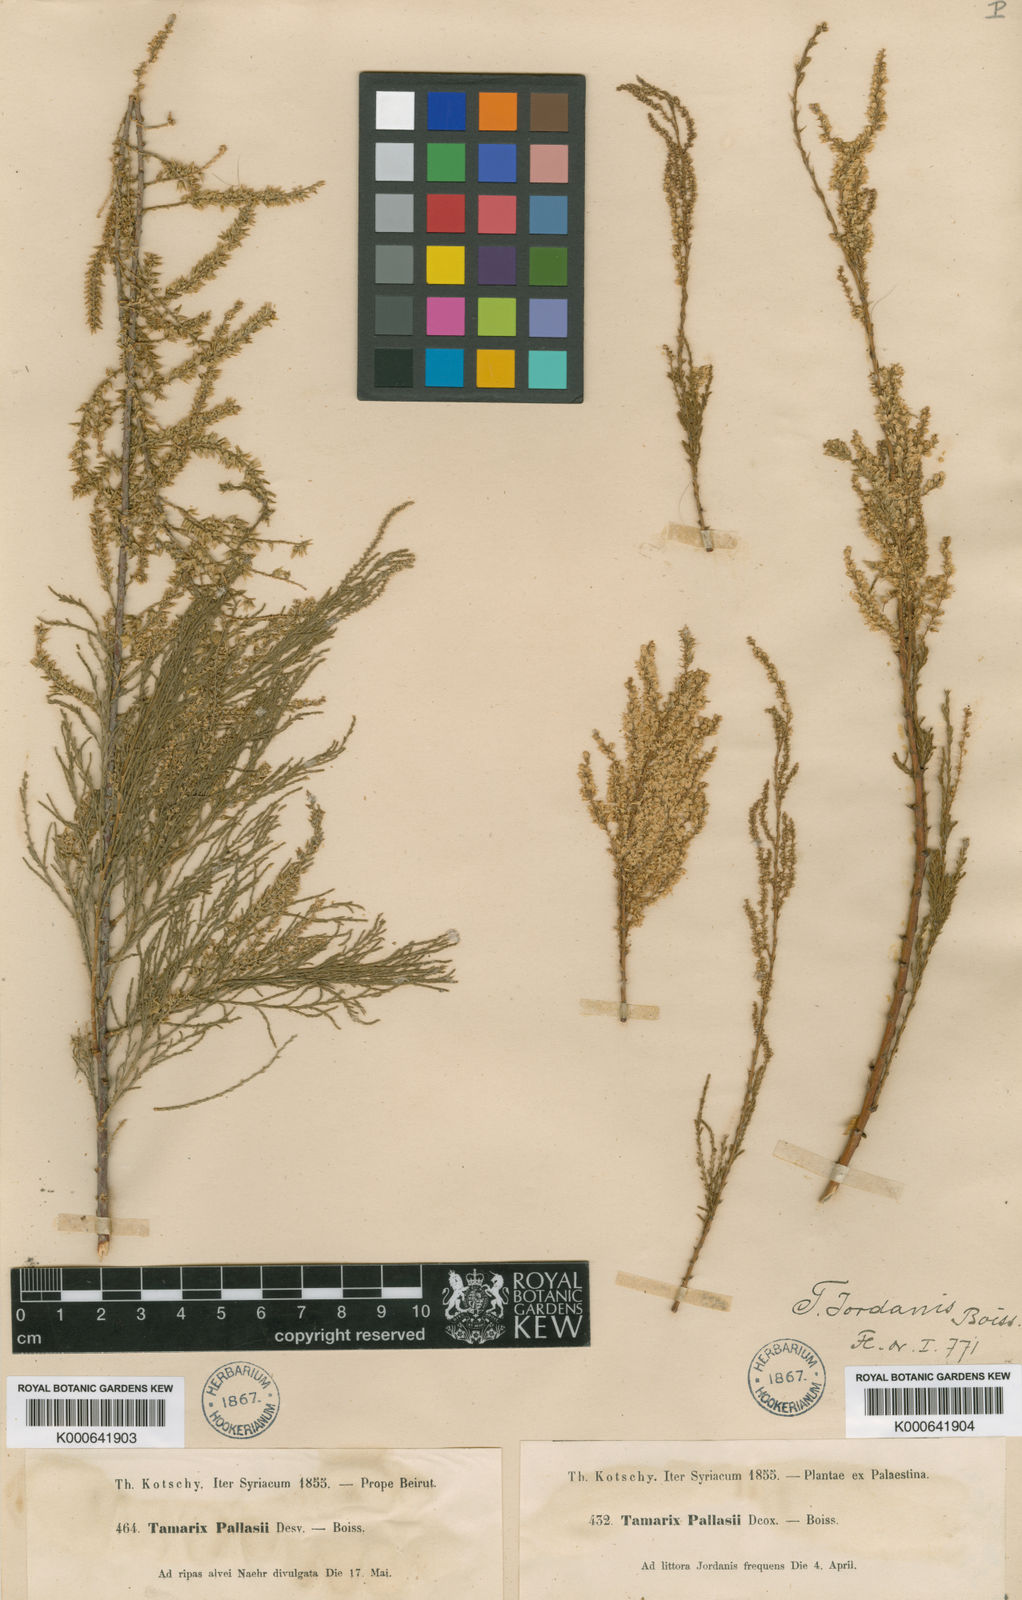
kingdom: Plantae
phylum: Tracheophyta
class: Magnoliopsida
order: Caryophyllales
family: Tamaricaceae
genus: Tamarix
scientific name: Tamarix jordanis
